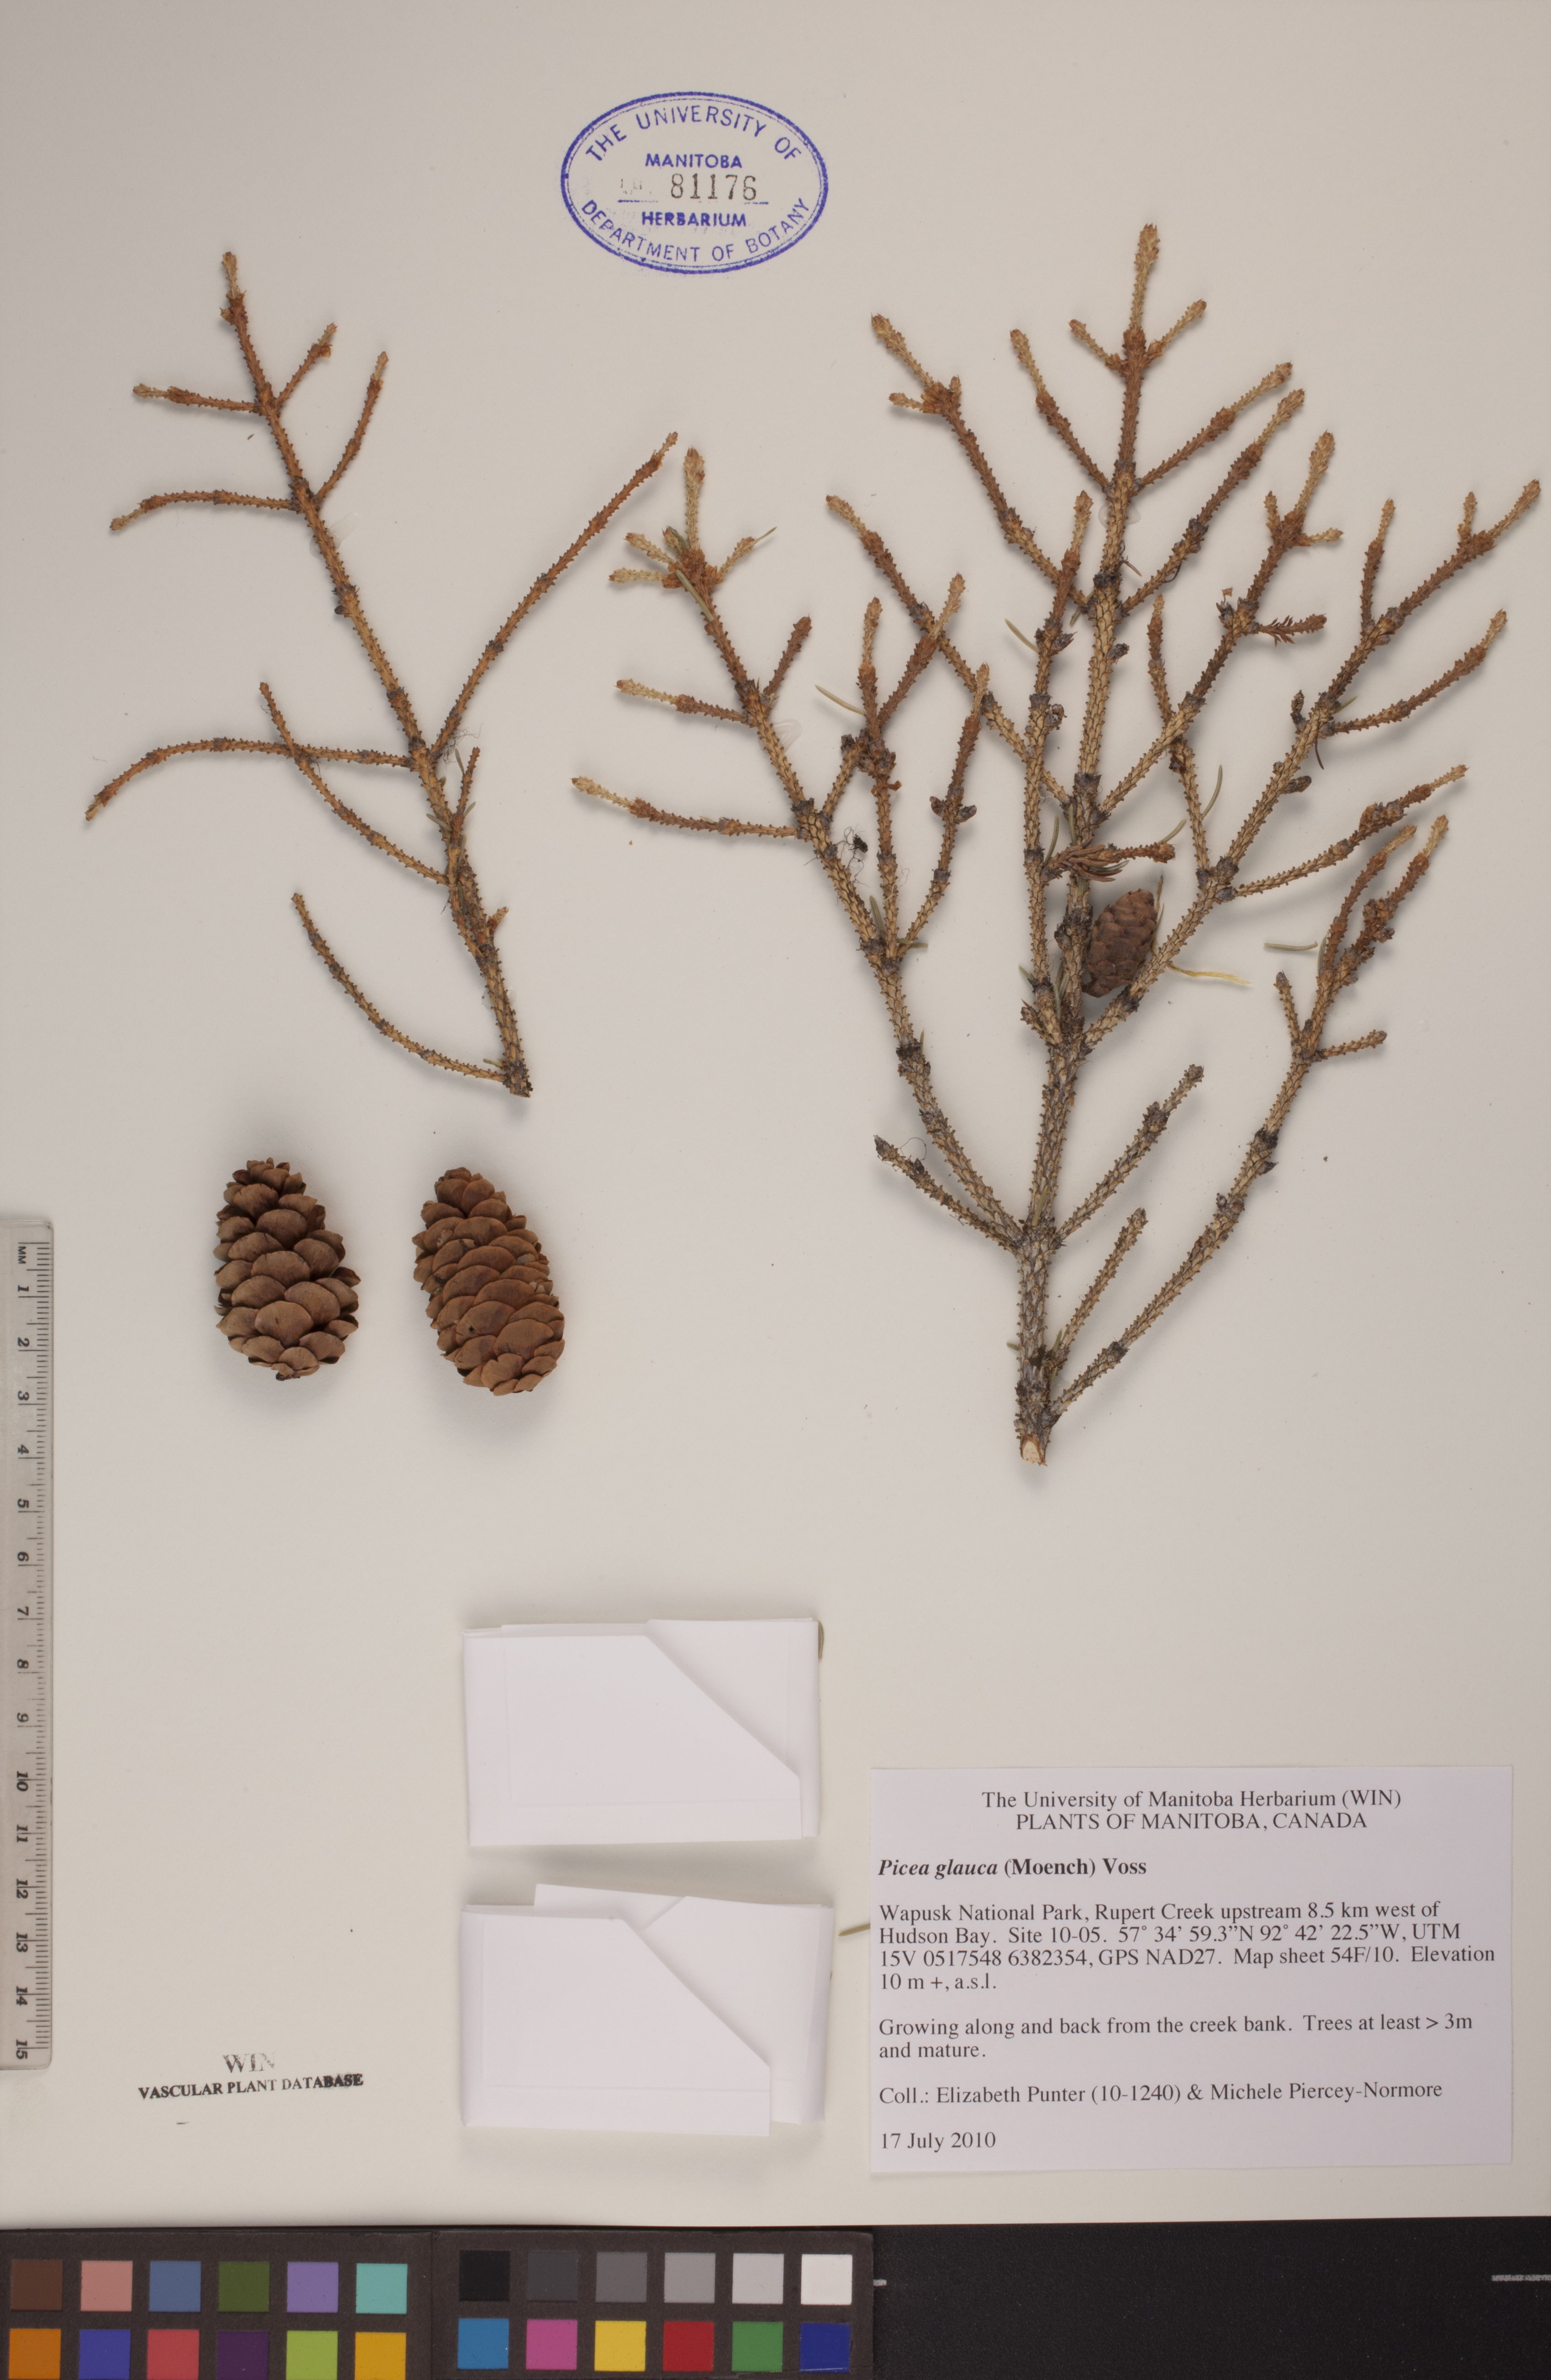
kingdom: Plantae
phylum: Tracheophyta
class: Pinopsida
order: Pinales
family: Pinaceae
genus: Picea
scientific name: Picea glauca
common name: White spruce
